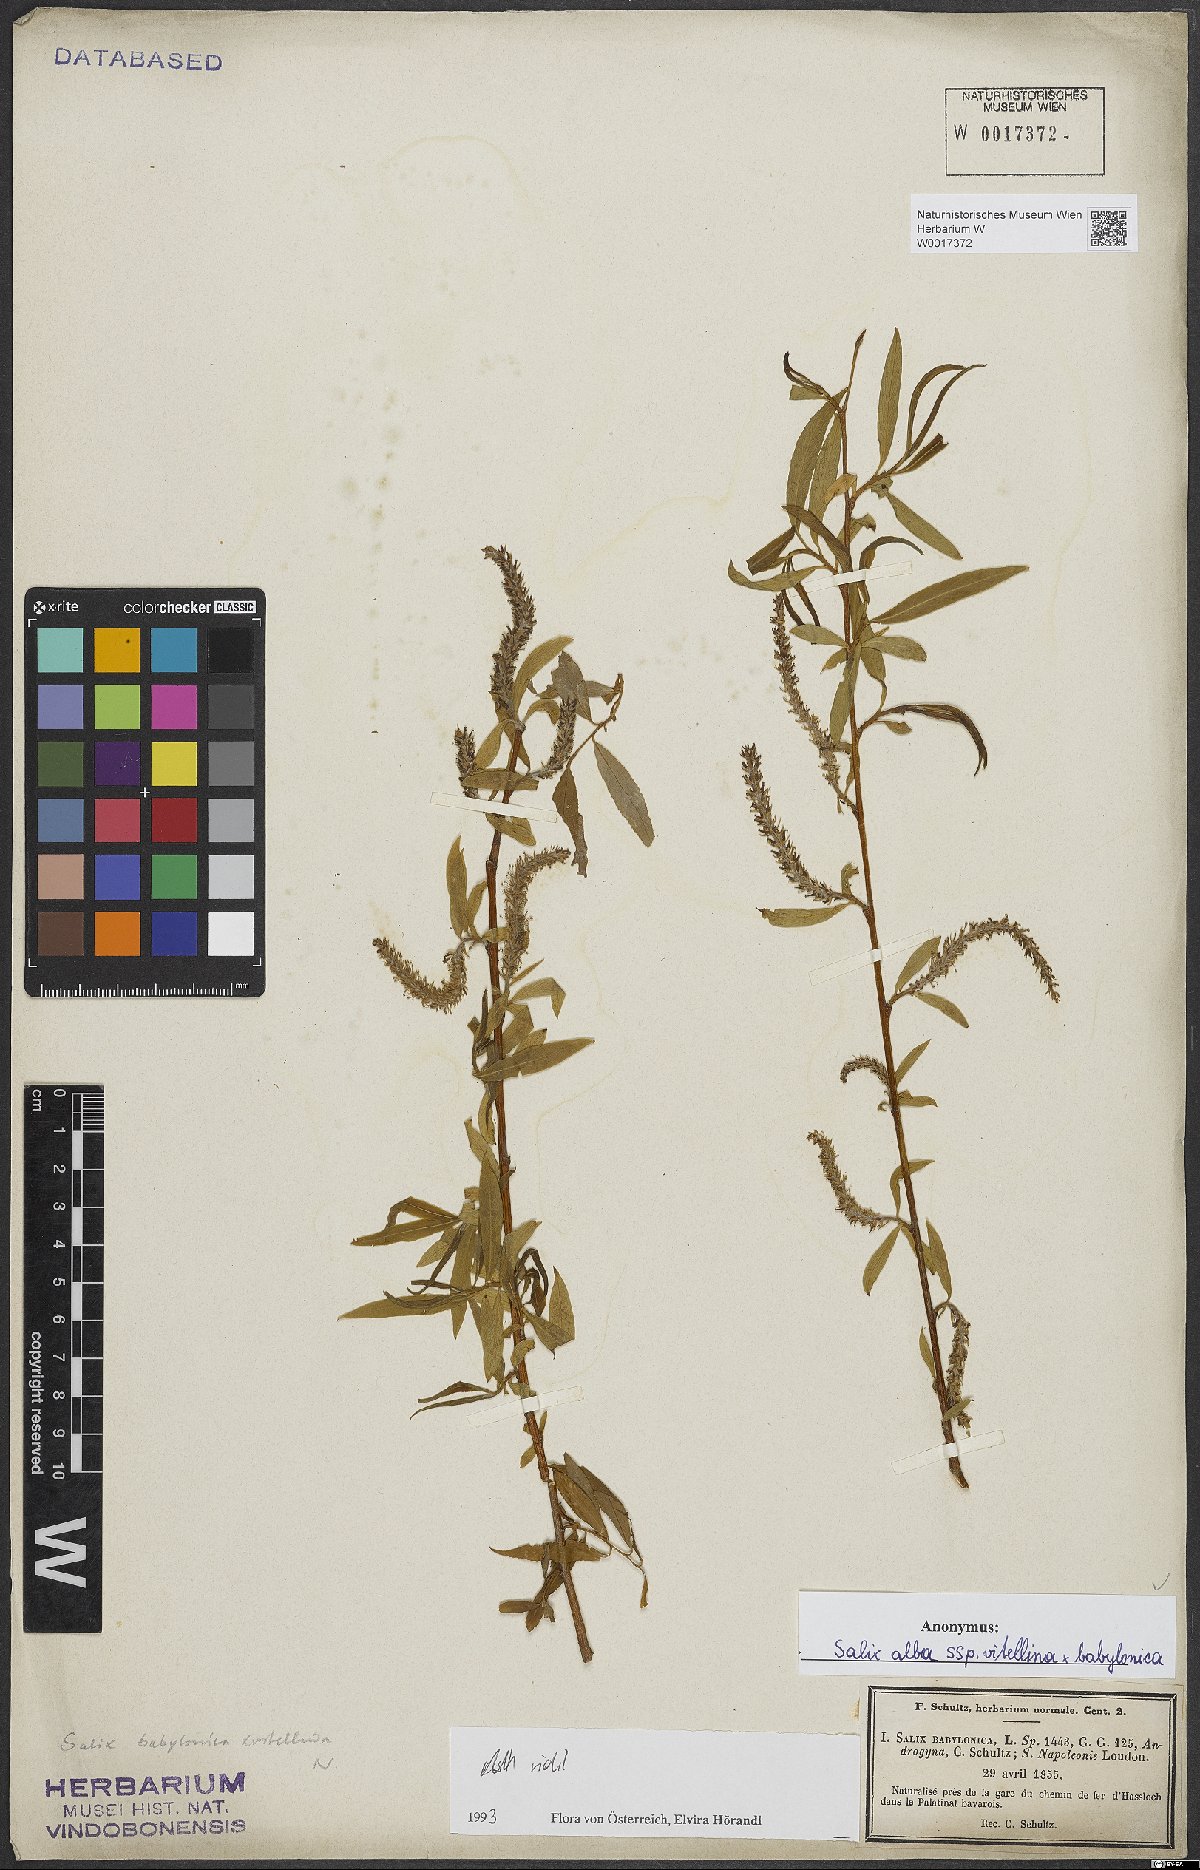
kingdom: Plantae
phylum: Tracheophyta
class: Magnoliopsida
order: Malpighiales
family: Salicaceae
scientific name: Salicaceae
